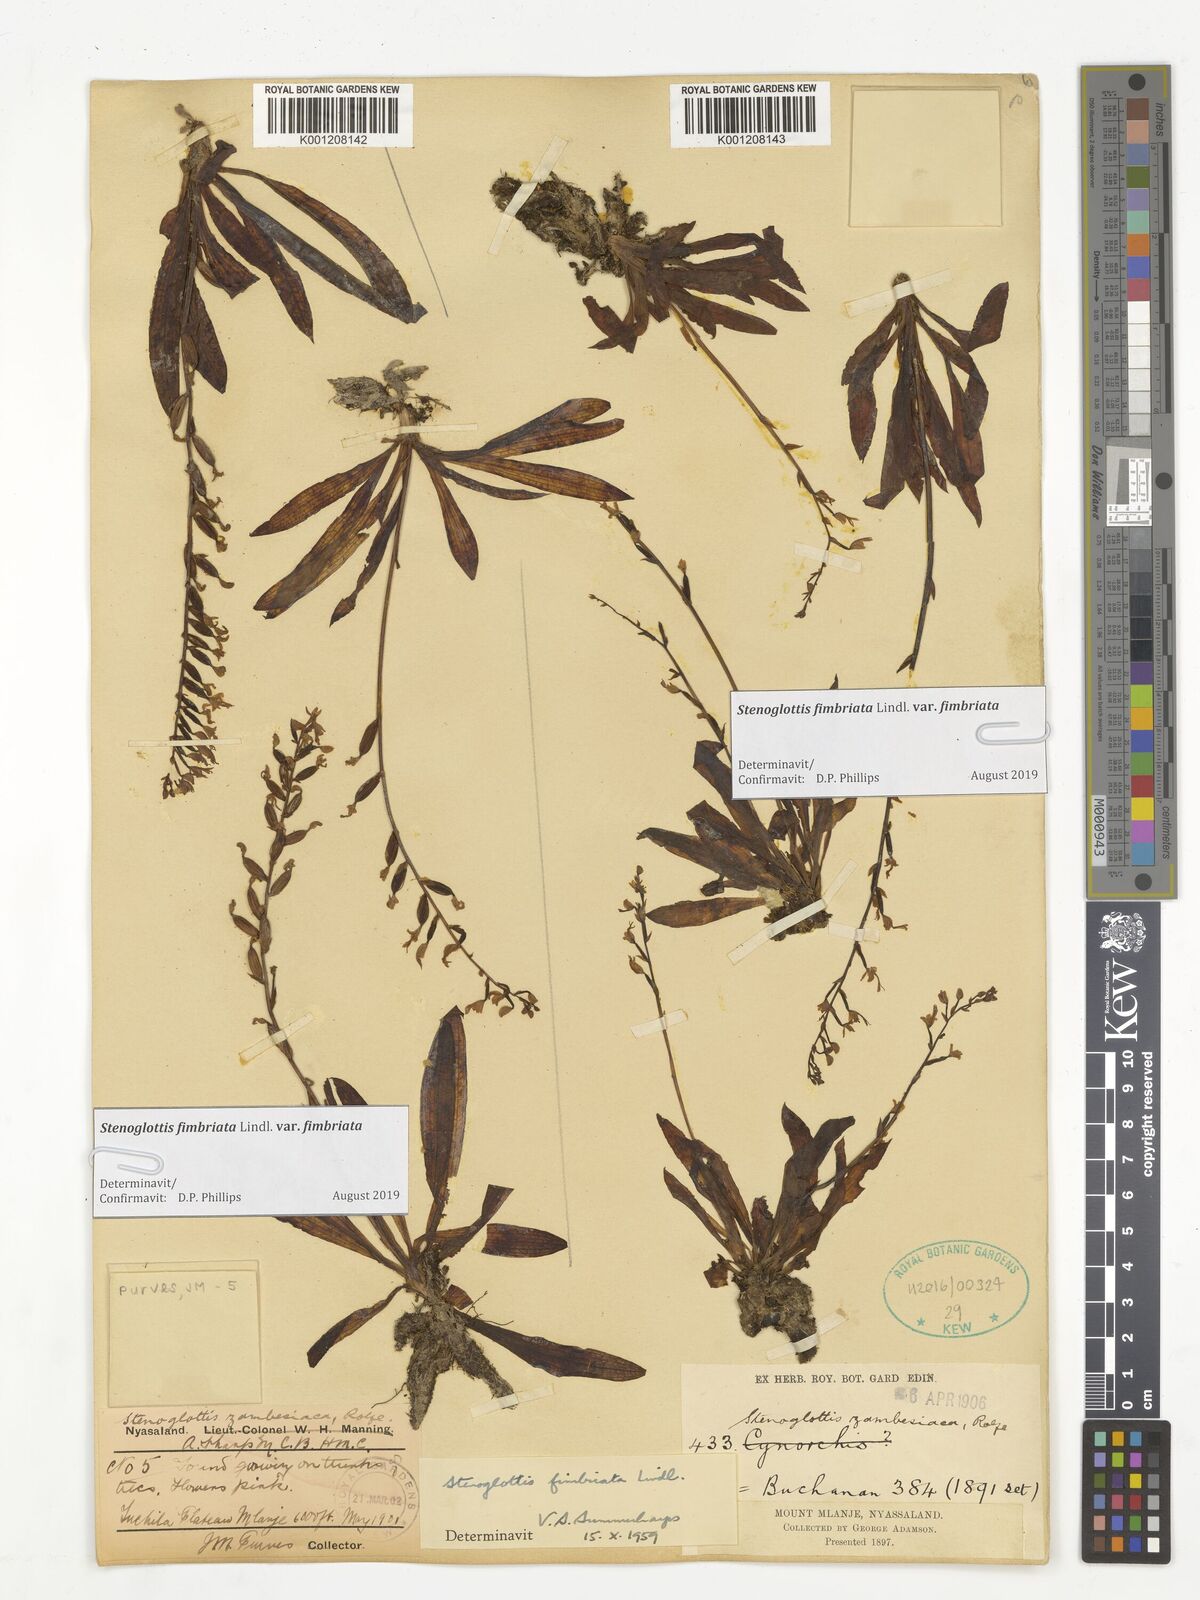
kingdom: Plantae
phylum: Tracheophyta
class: Liliopsida
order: Asparagales
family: Orchidaceae
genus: Stenoglottis
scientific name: Stenoglottis fimbriata
